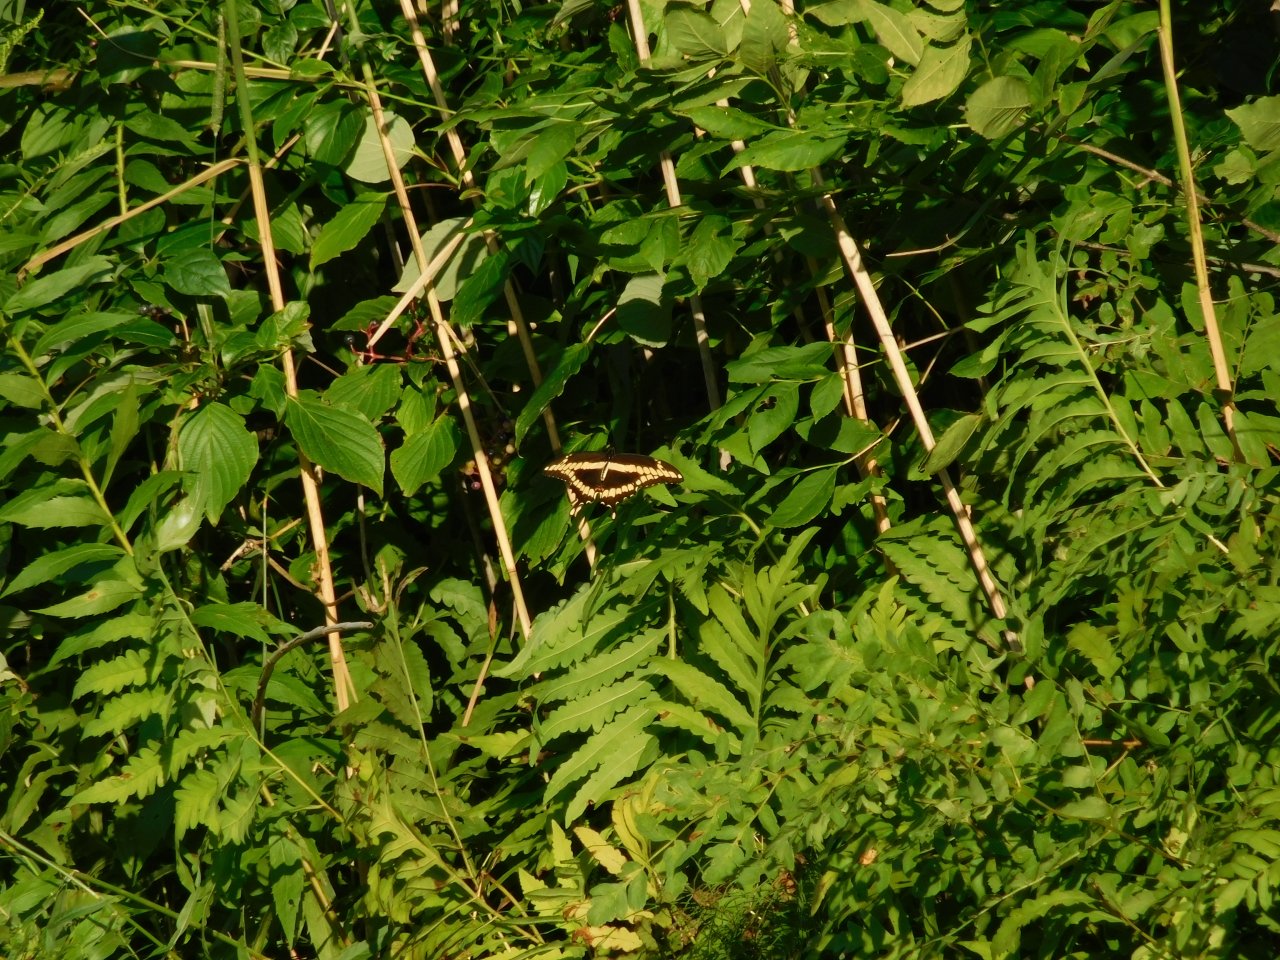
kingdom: Animalia
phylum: Arthropoda
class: Insecta
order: Lepidoptera
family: Papilionidae
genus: Papilio
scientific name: Papilio cresphontes
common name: Eastern Giant Swallowtail
